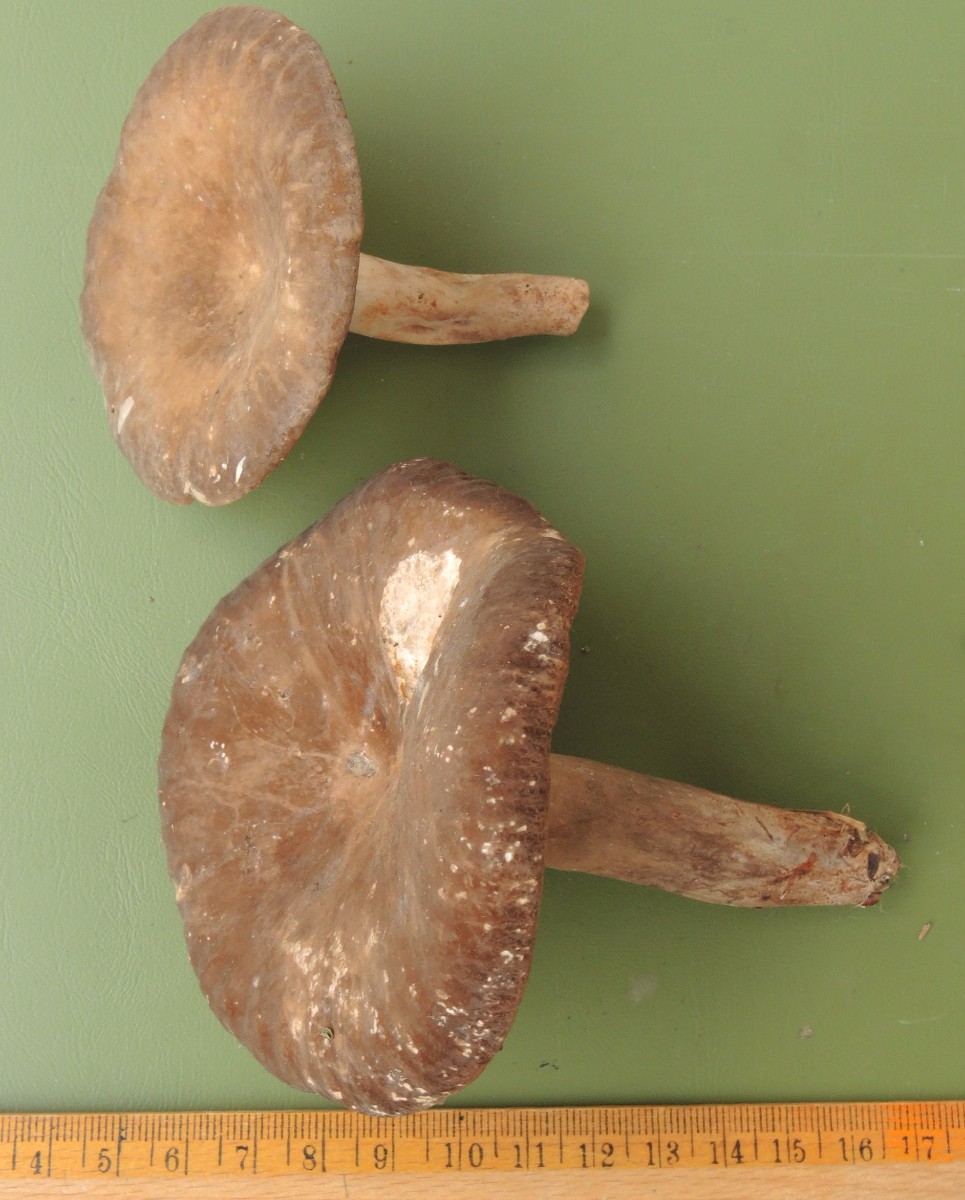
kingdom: Fungi
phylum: Basidiomycota
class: Agaricomycetes
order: Russulales
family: Russulaceae
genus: Lactarius
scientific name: Lactarius romagnesii
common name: fjernbladet mælkehat
